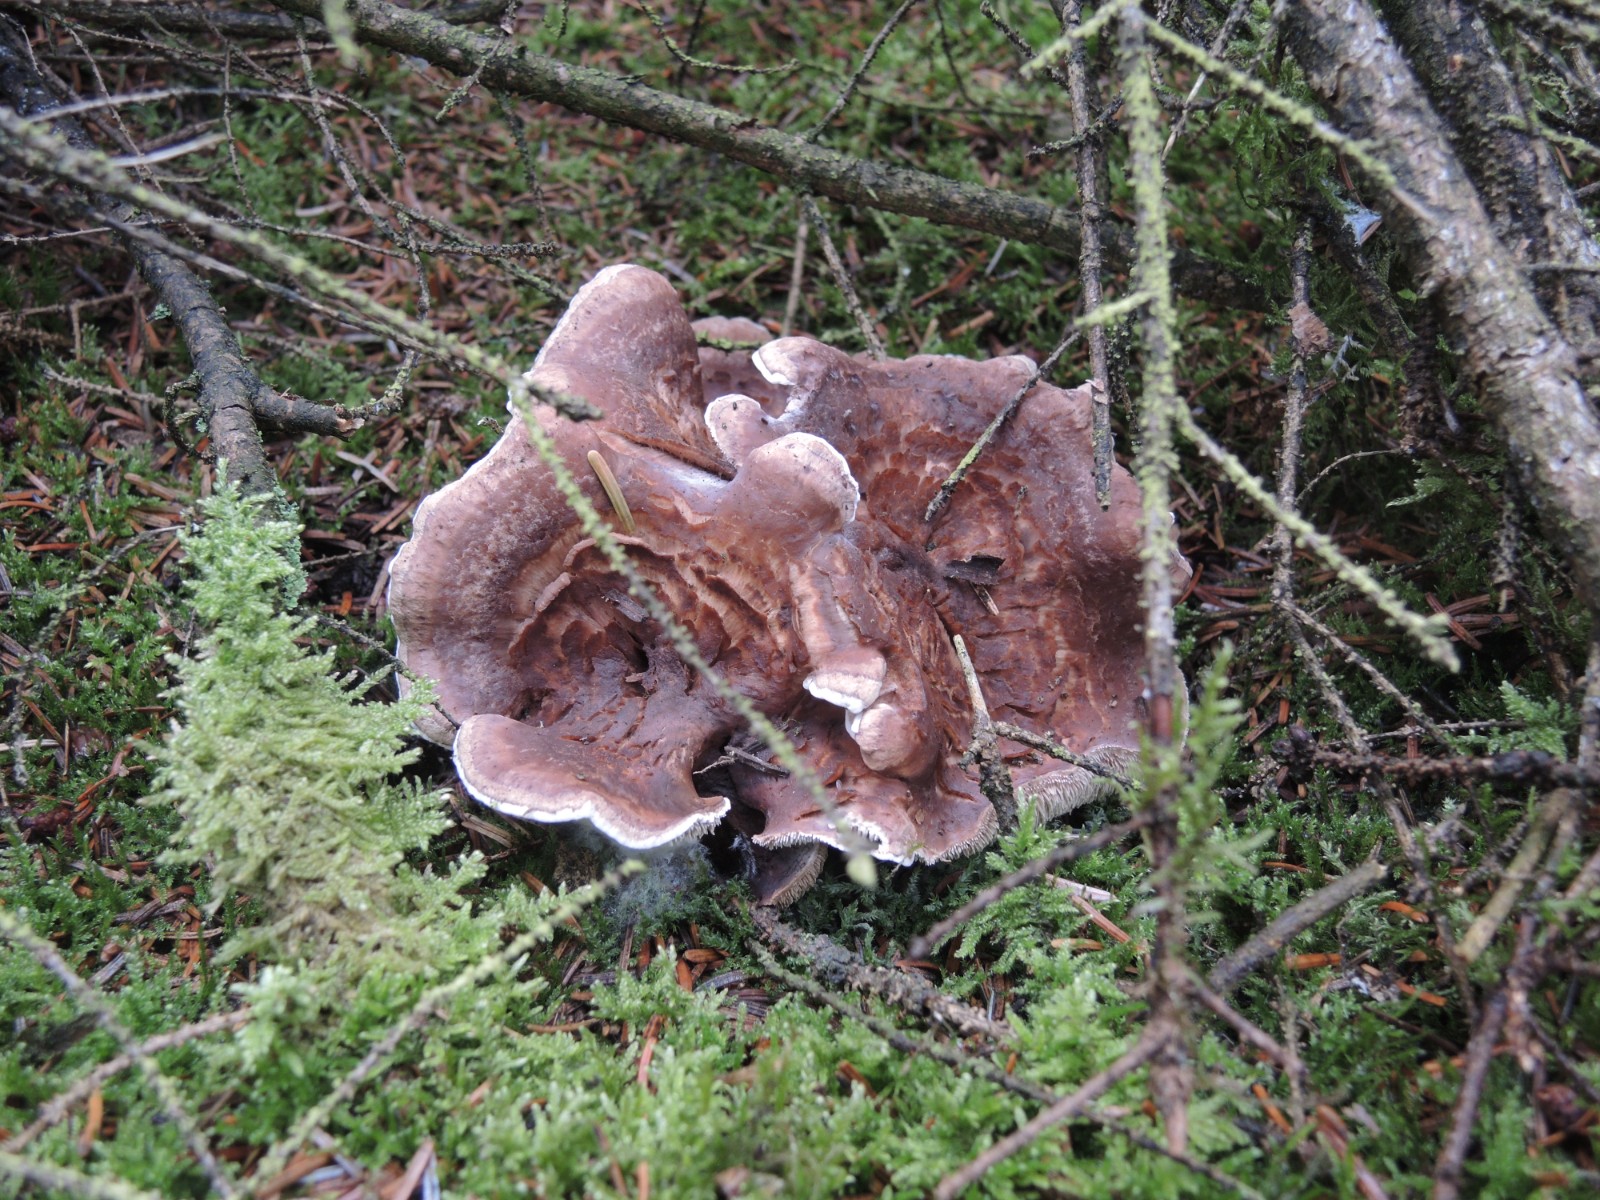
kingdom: Fungi
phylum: Basidiomycota
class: Agaricomycetes
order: Thelephorales
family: Thelephoraceae
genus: Phellodon
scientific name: Phellodon violascens
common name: violetbrun duftpigsvamp
